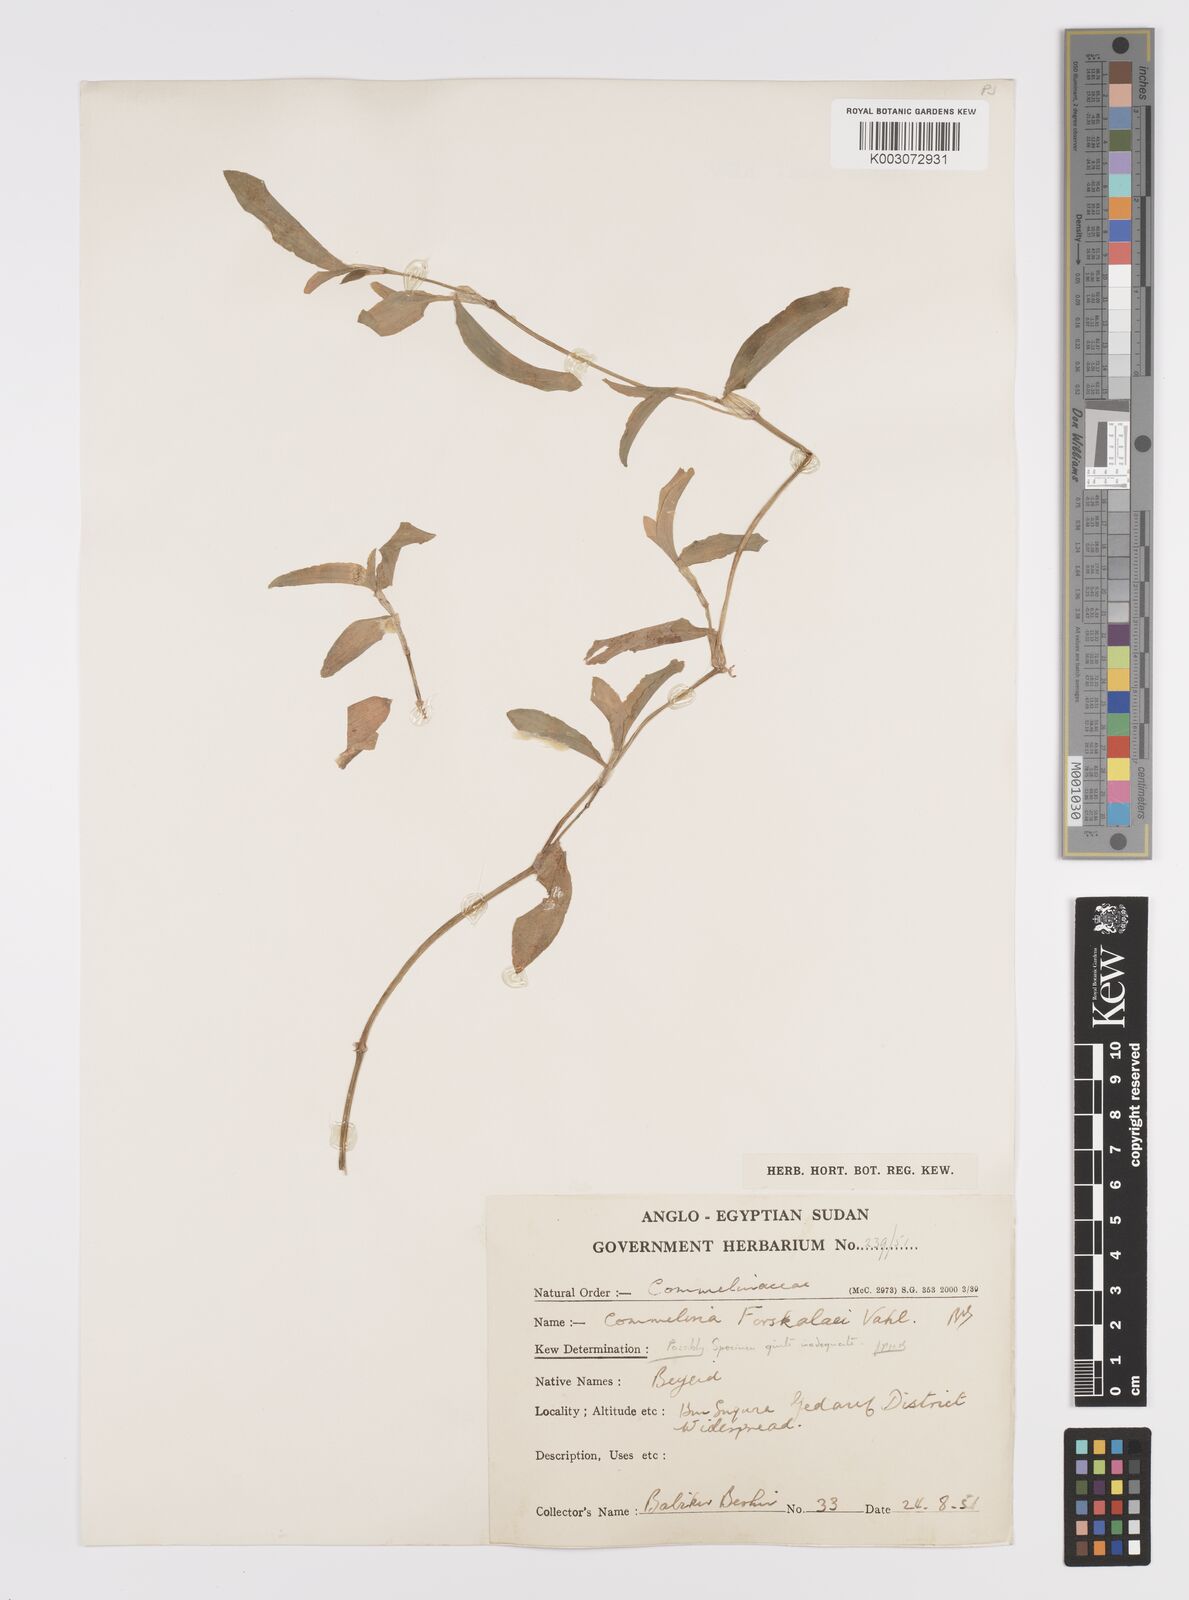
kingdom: Plantae
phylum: Tracheophyta
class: Liliopsida
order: Commelinales
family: Commelinaceae
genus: Commelina
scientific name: Commelina forskaolii
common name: Rat's ear
